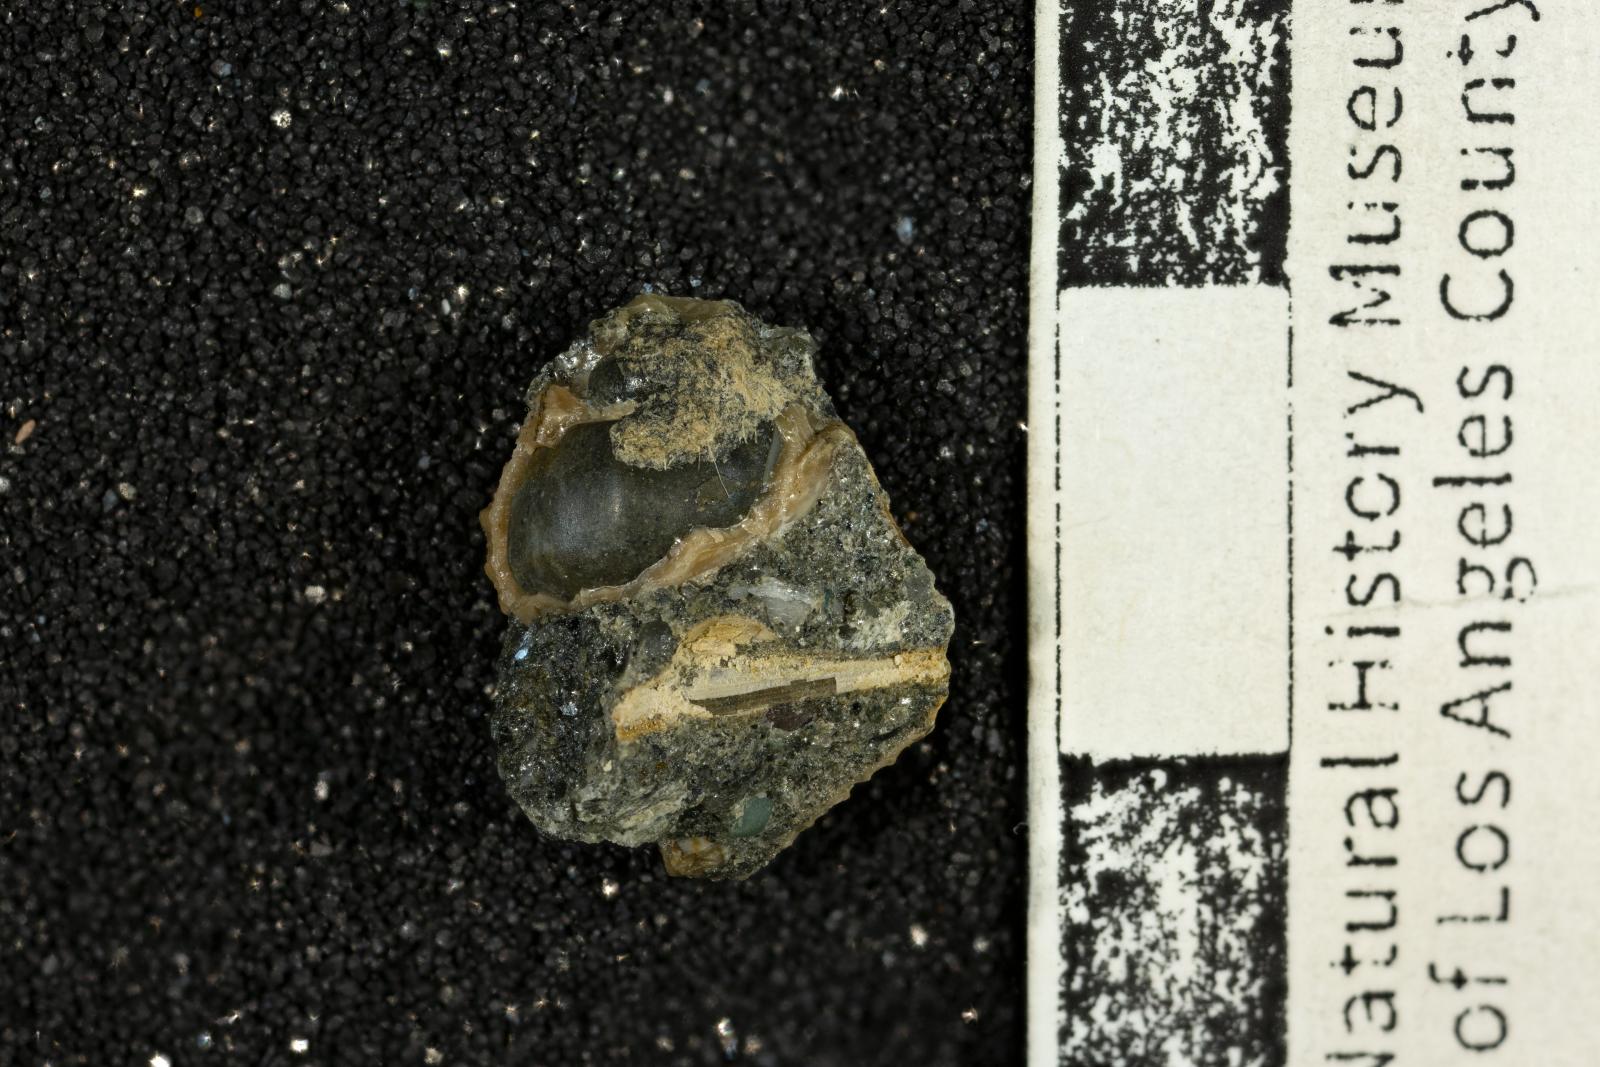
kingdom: Animalia
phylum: Mollusca
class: Gastropoda
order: Neogastropoda
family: Perissityidae
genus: Perissitys
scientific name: Perissitys elaphia
